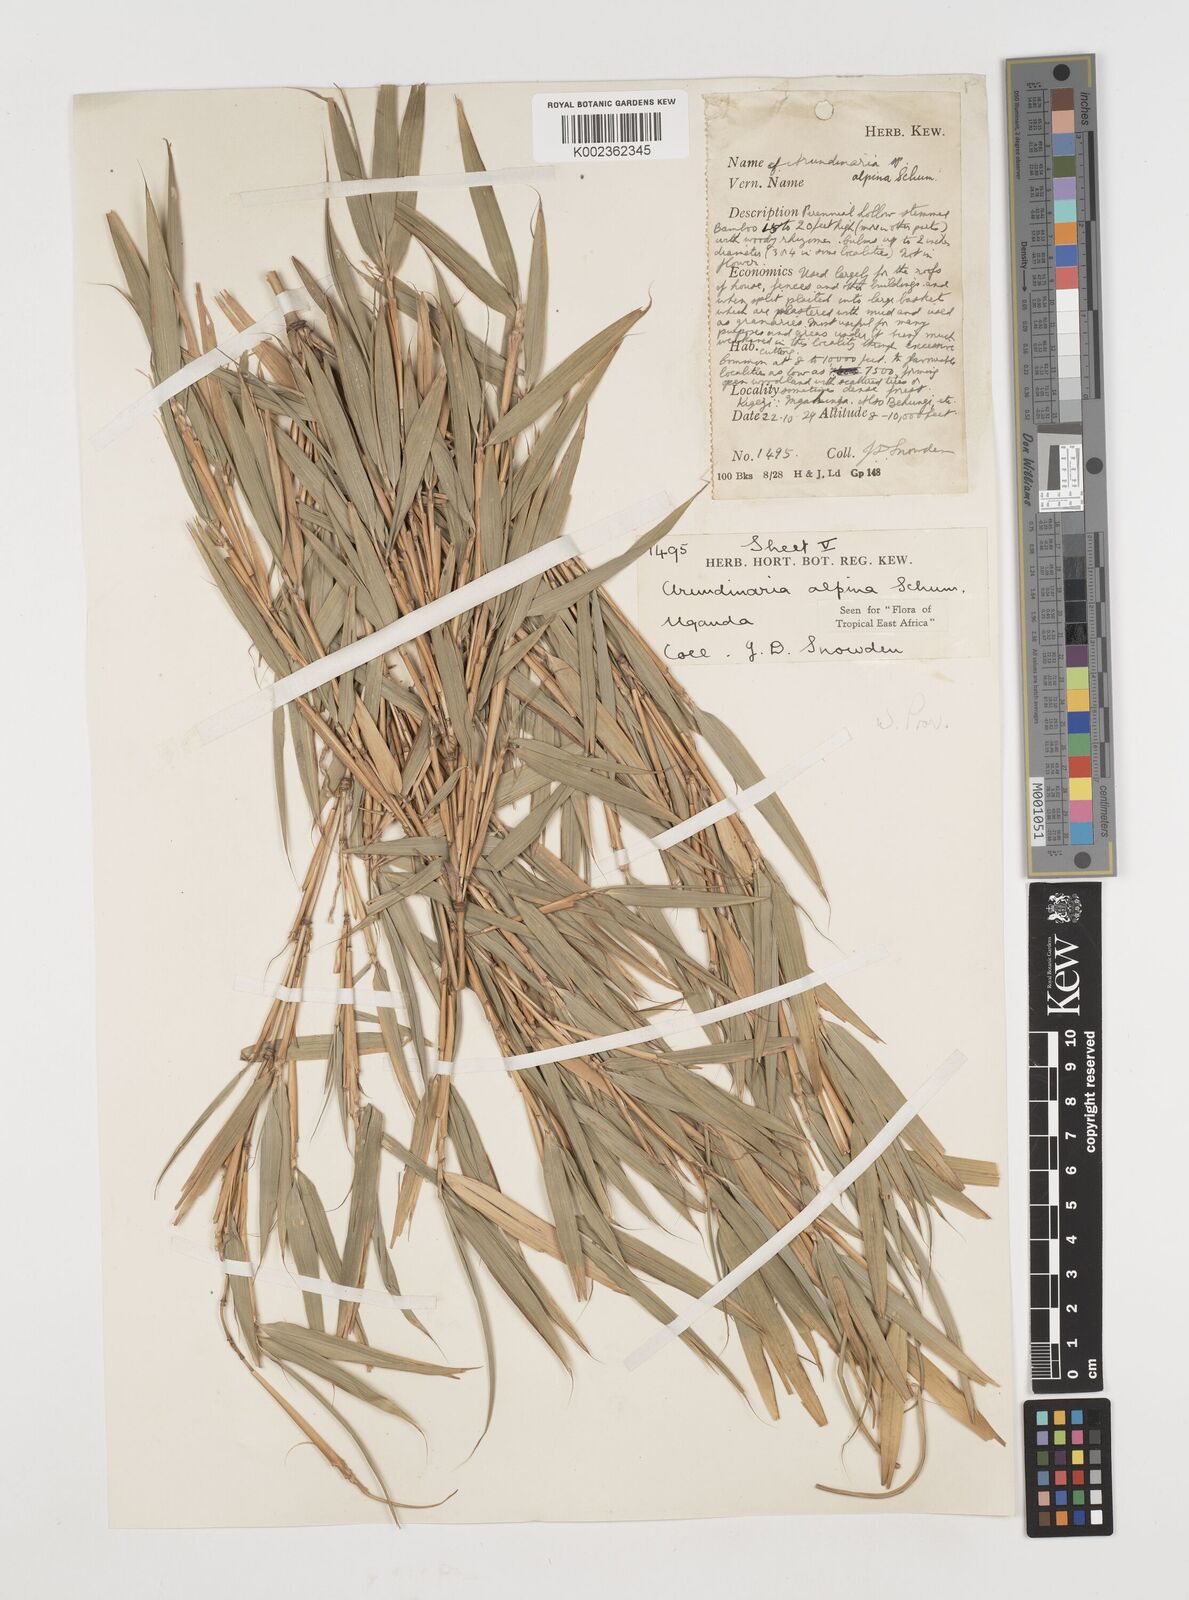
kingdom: Plantae
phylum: Tracheophyta
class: Liliopsida
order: Poales
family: Poaceae
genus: Oldeania
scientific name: Oldeania alpina
